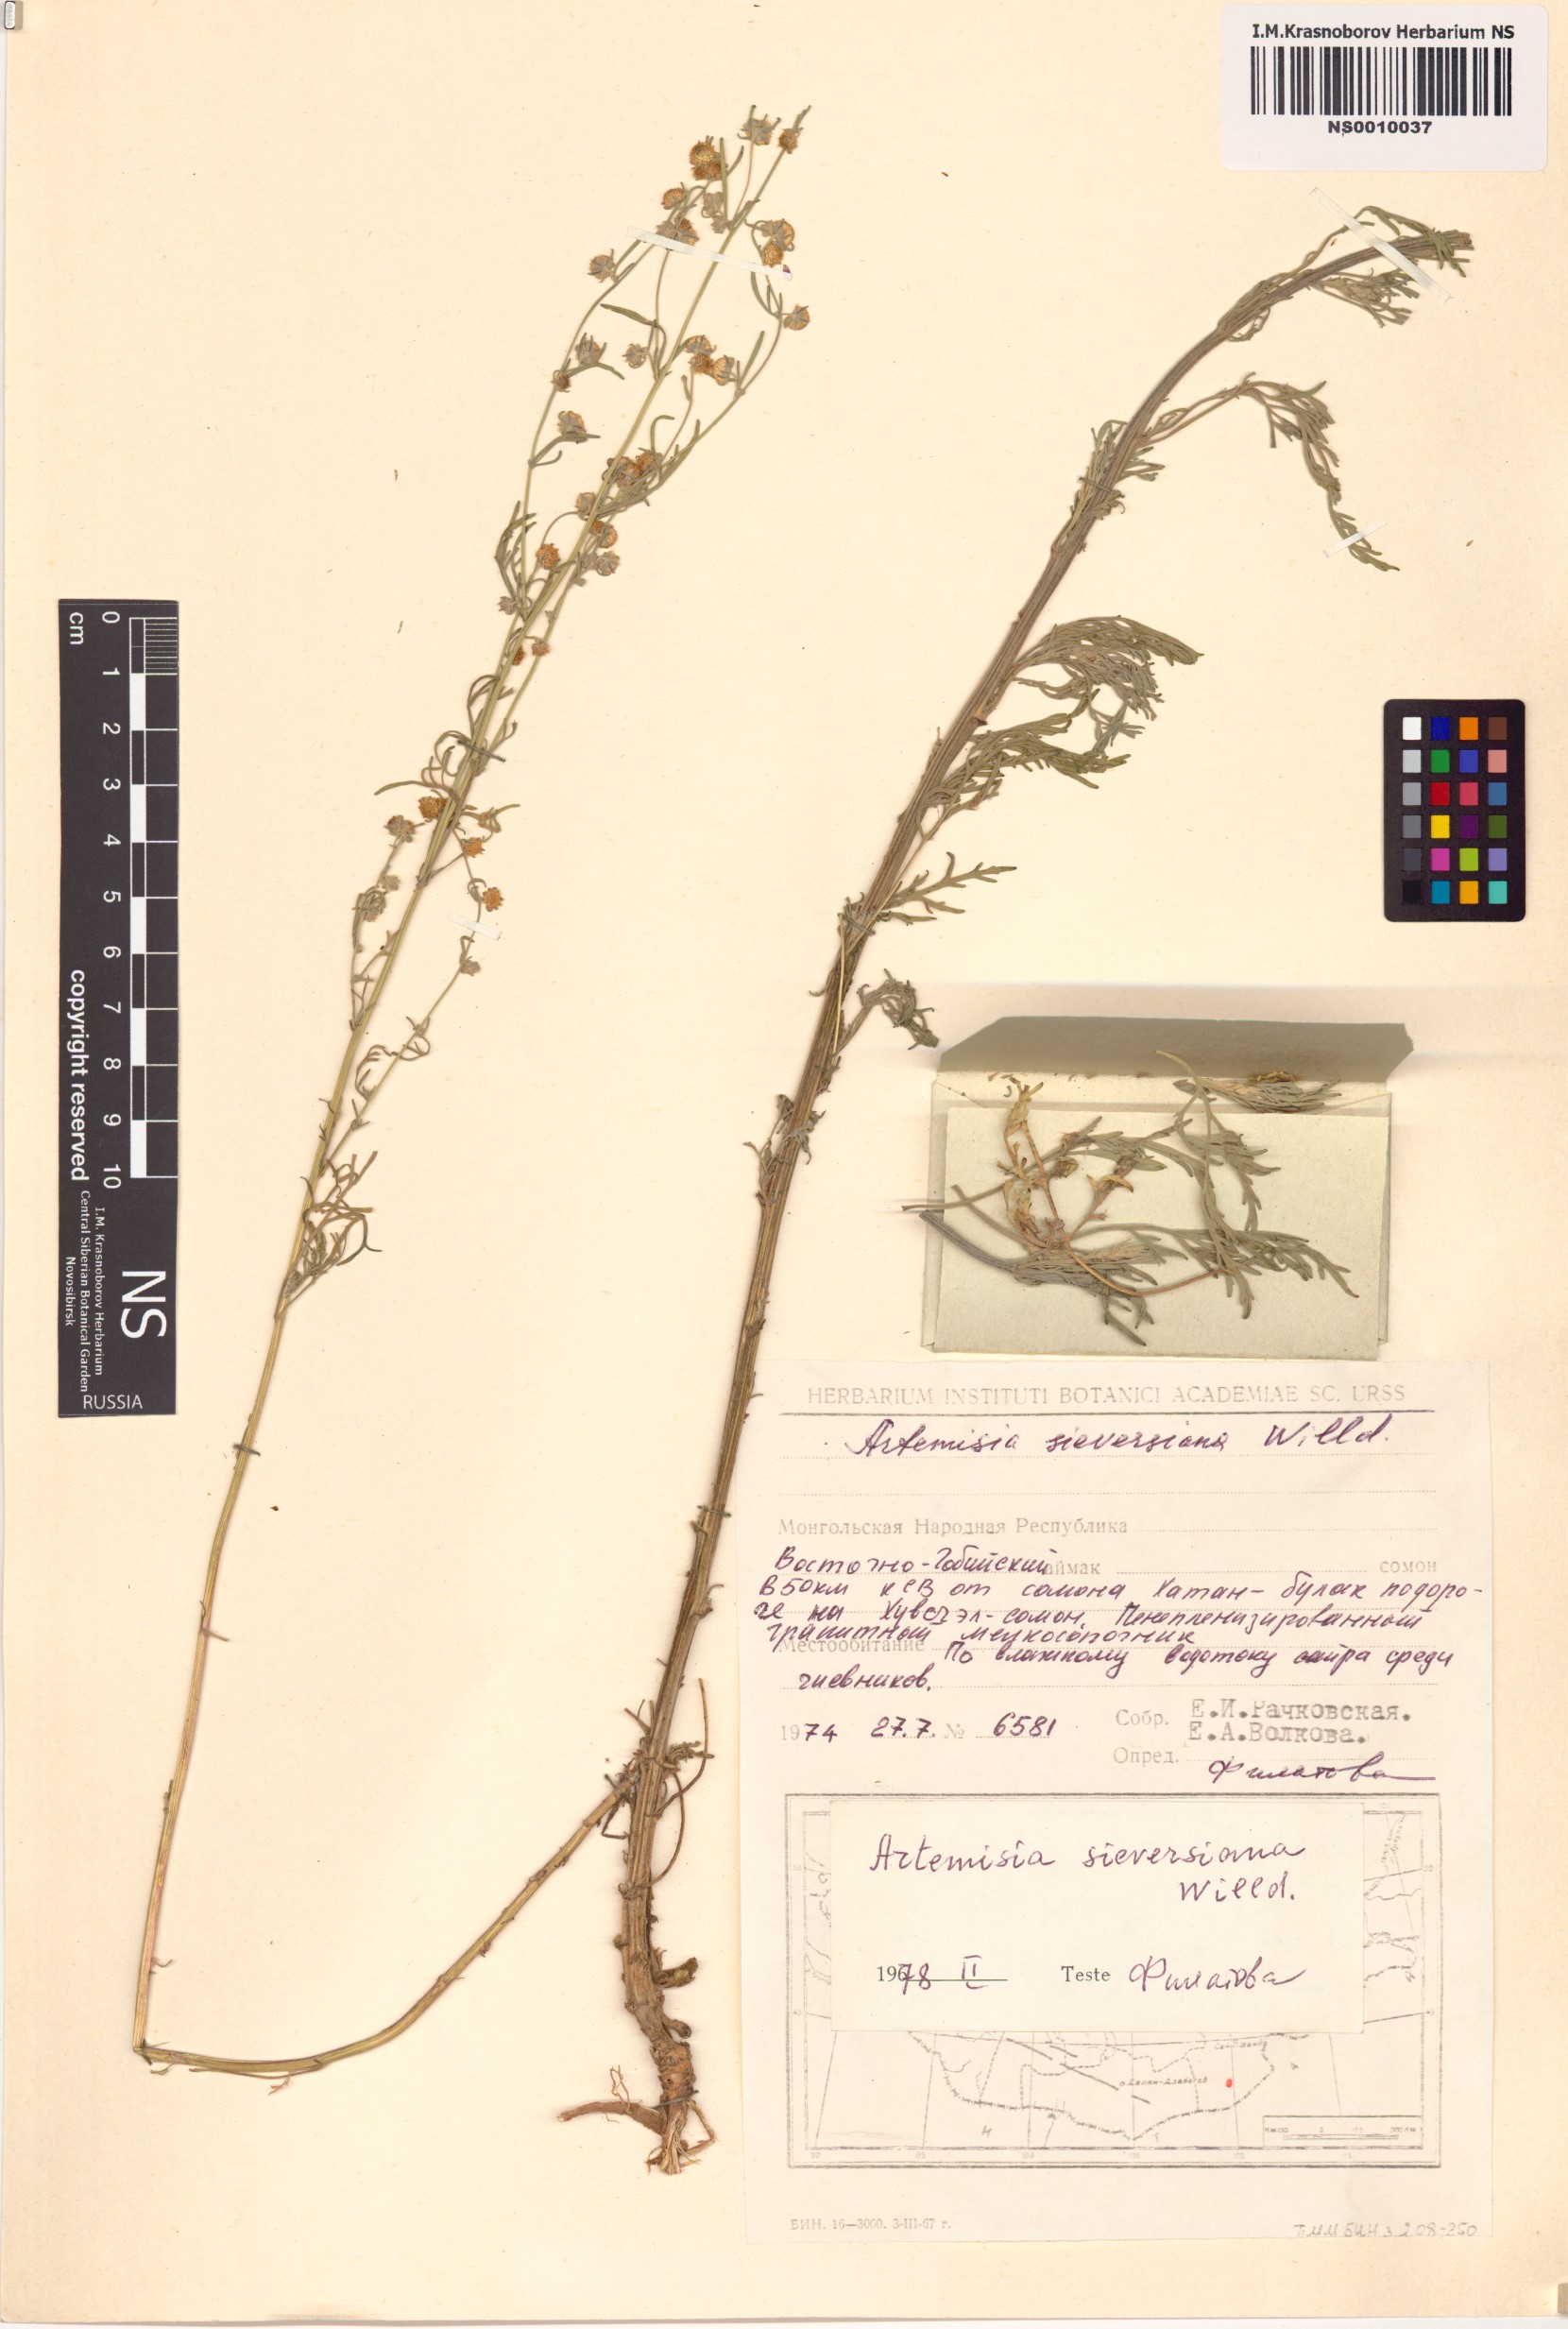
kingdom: Plantae
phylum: Tracheophyta
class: Magnoliopsida
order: Asterales
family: Asteraceae
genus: Artemisia
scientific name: Artemisia sieversiana
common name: Sieversian wormwood
